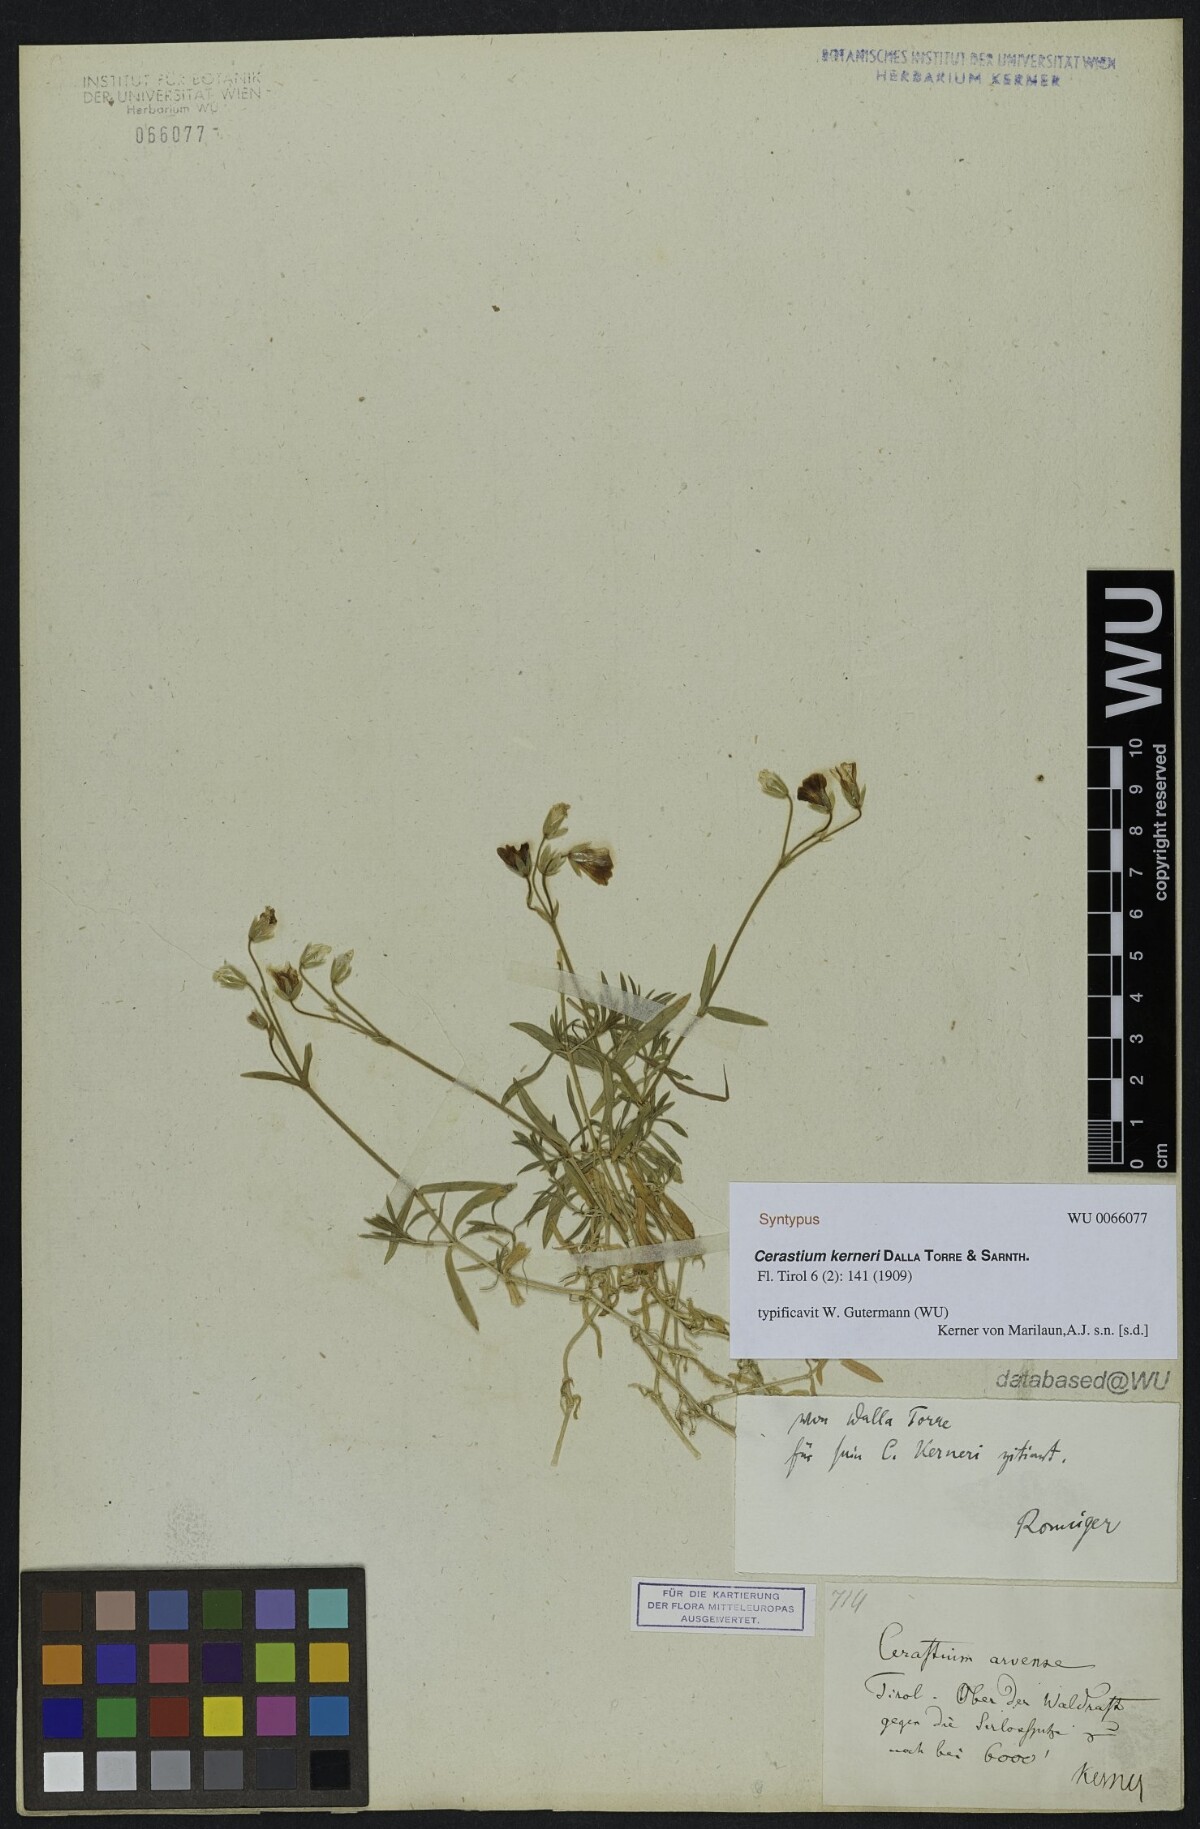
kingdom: Plantae
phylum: Tracheophyta
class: Magnoliopsida
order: Caryophyllales
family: Caryophyllaceae
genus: Cerastium
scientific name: Cerastium elongatum
